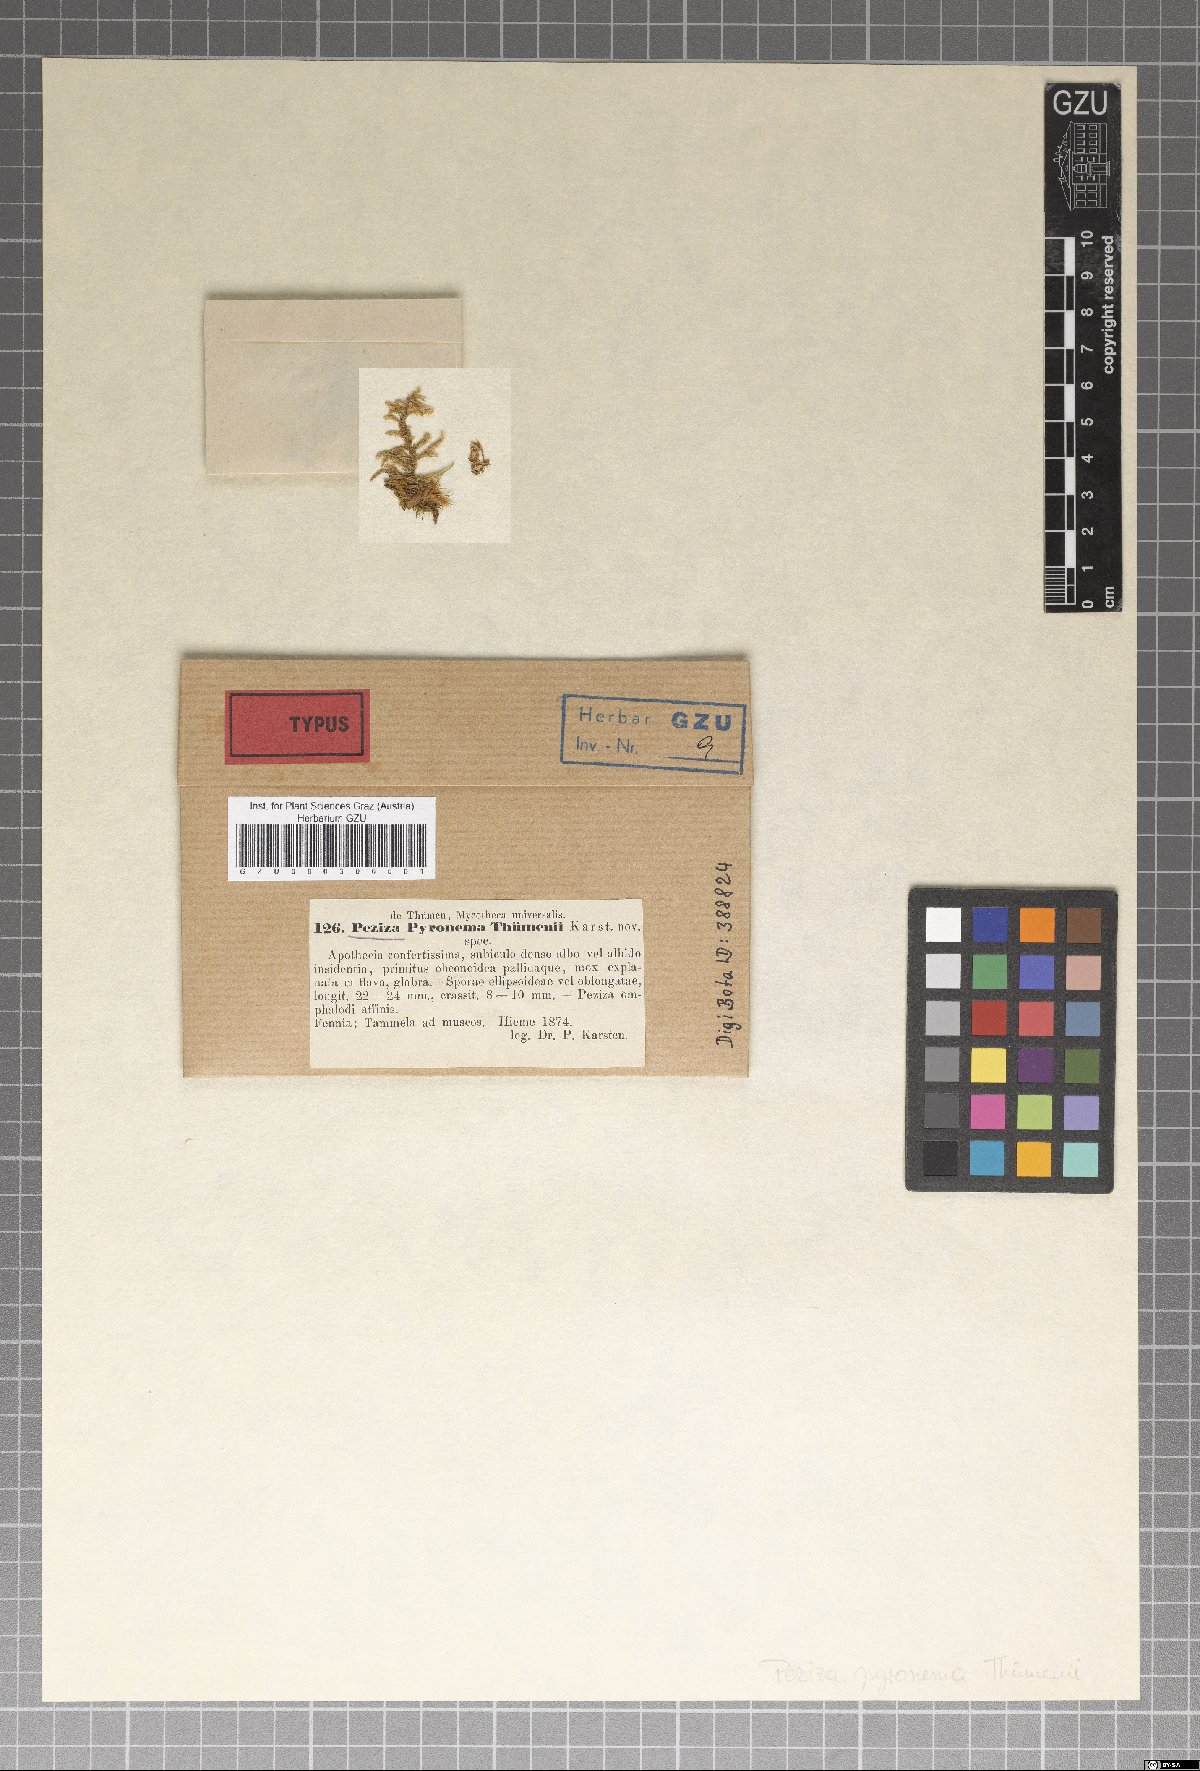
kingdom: Fungi
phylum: Ascomycota
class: Pezizomycetes
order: Pezizales
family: Pyronemataceae
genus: Byssonectria
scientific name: Byssonectria thuemenii
